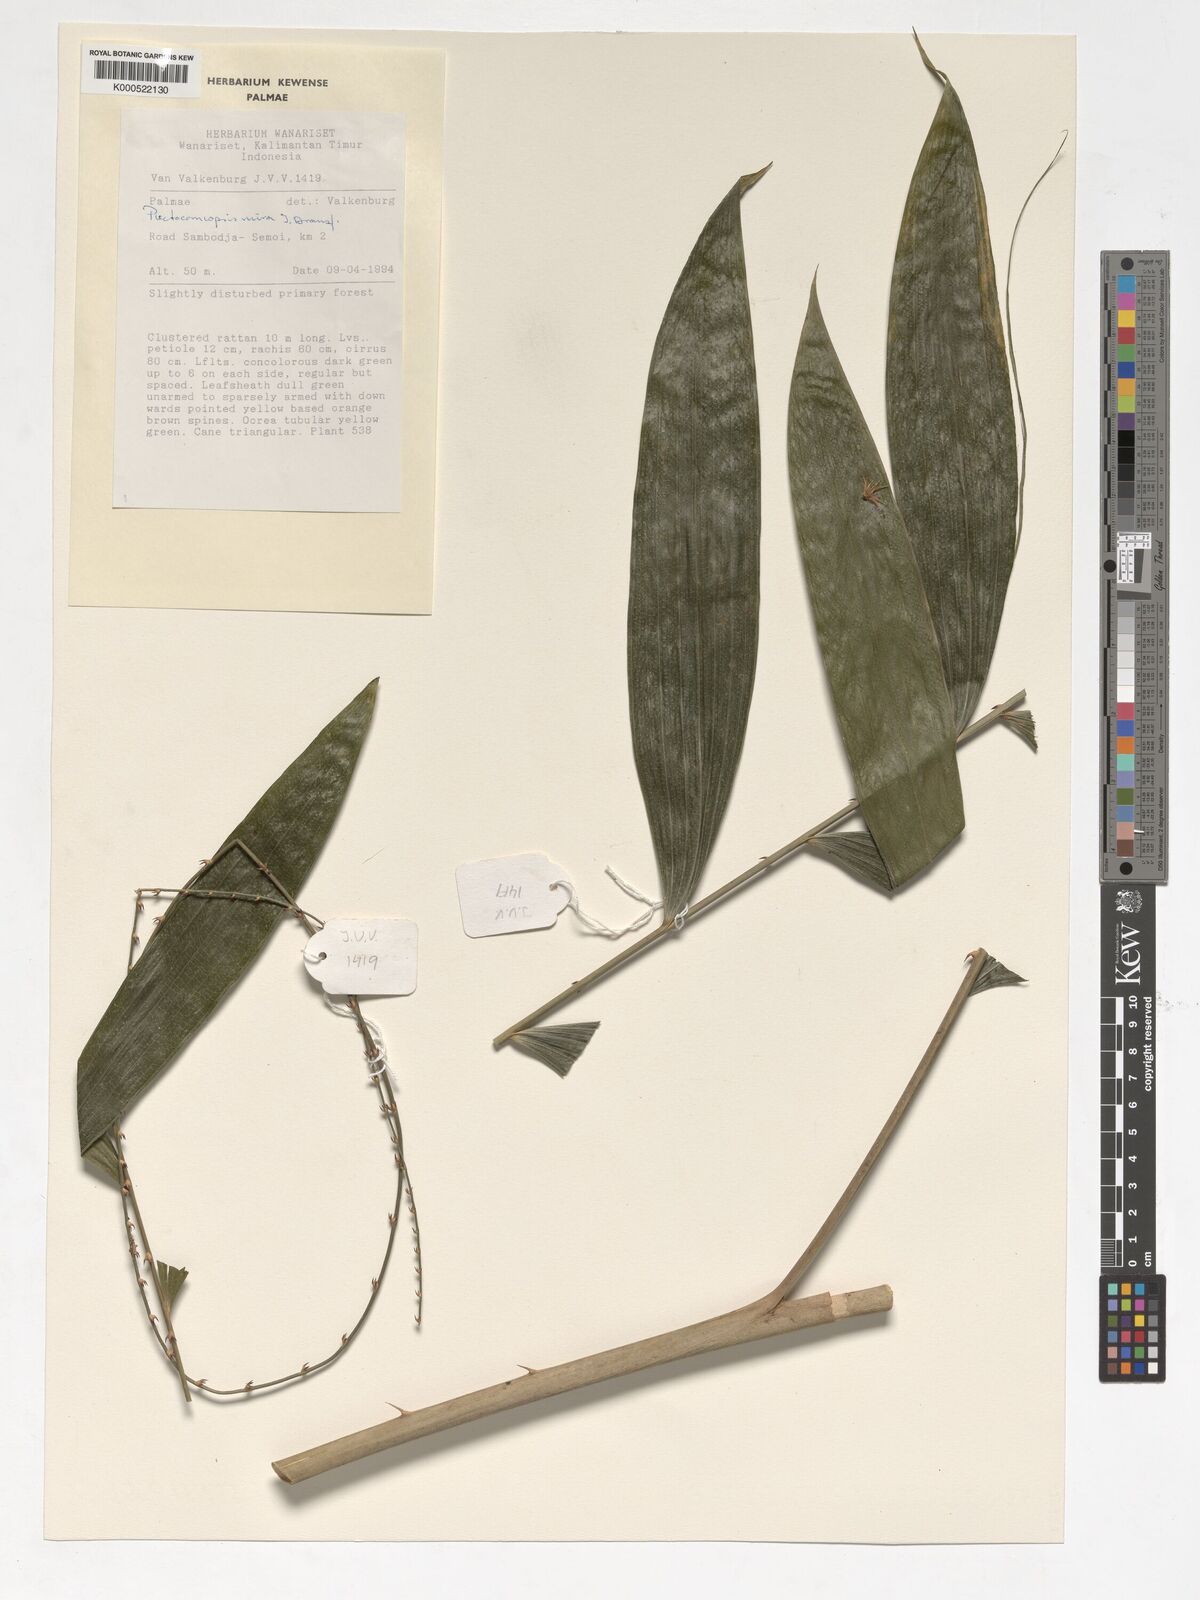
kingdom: Plantae
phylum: Tracheophyta
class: Liliopsida
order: Arecales
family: Arecaceae
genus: Plectocomiopsis
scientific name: Plectocomiopsis mira
